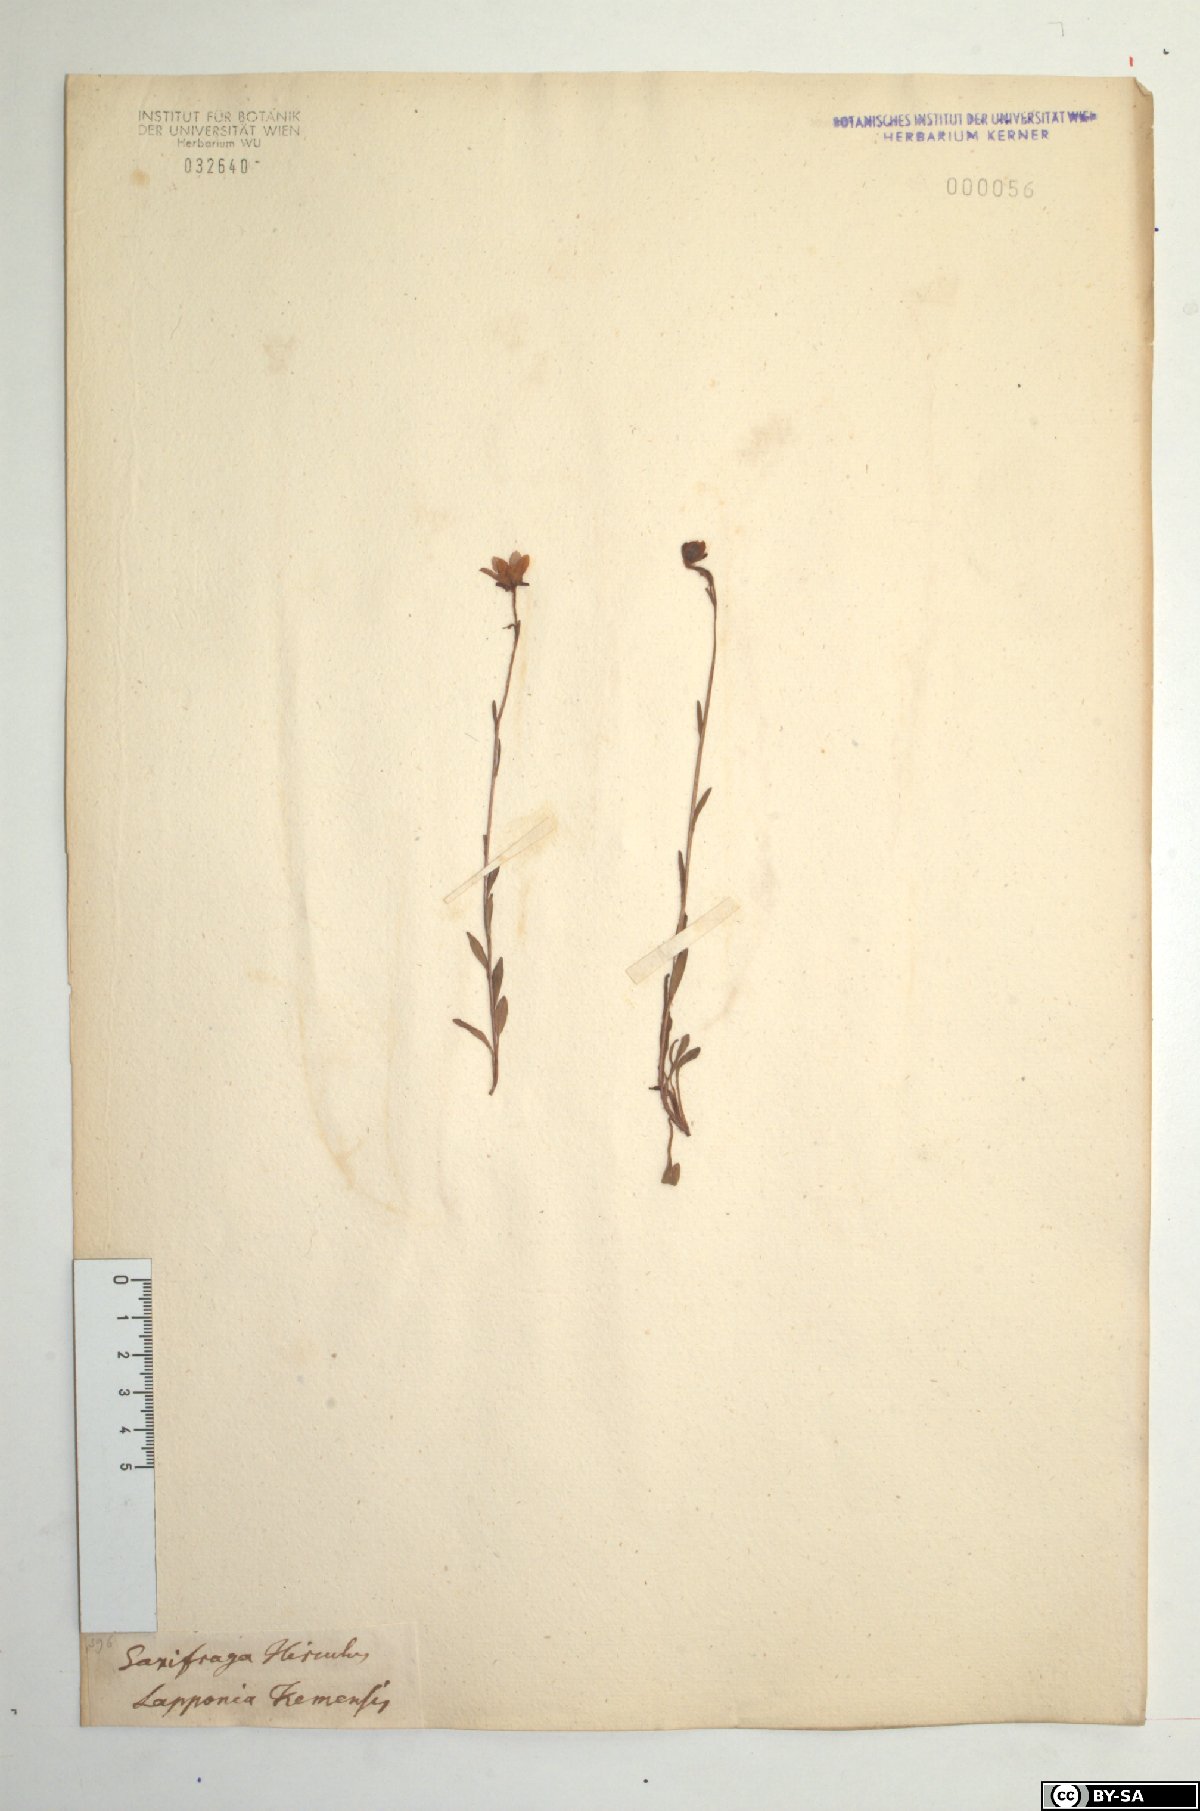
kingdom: Plantae
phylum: Tracheophyta
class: Magnoliopsida
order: Saxifragales
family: Saxifragaceae
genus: Saxifraga
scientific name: Saxifraga hirculus
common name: Yellow marsh saxifrage
